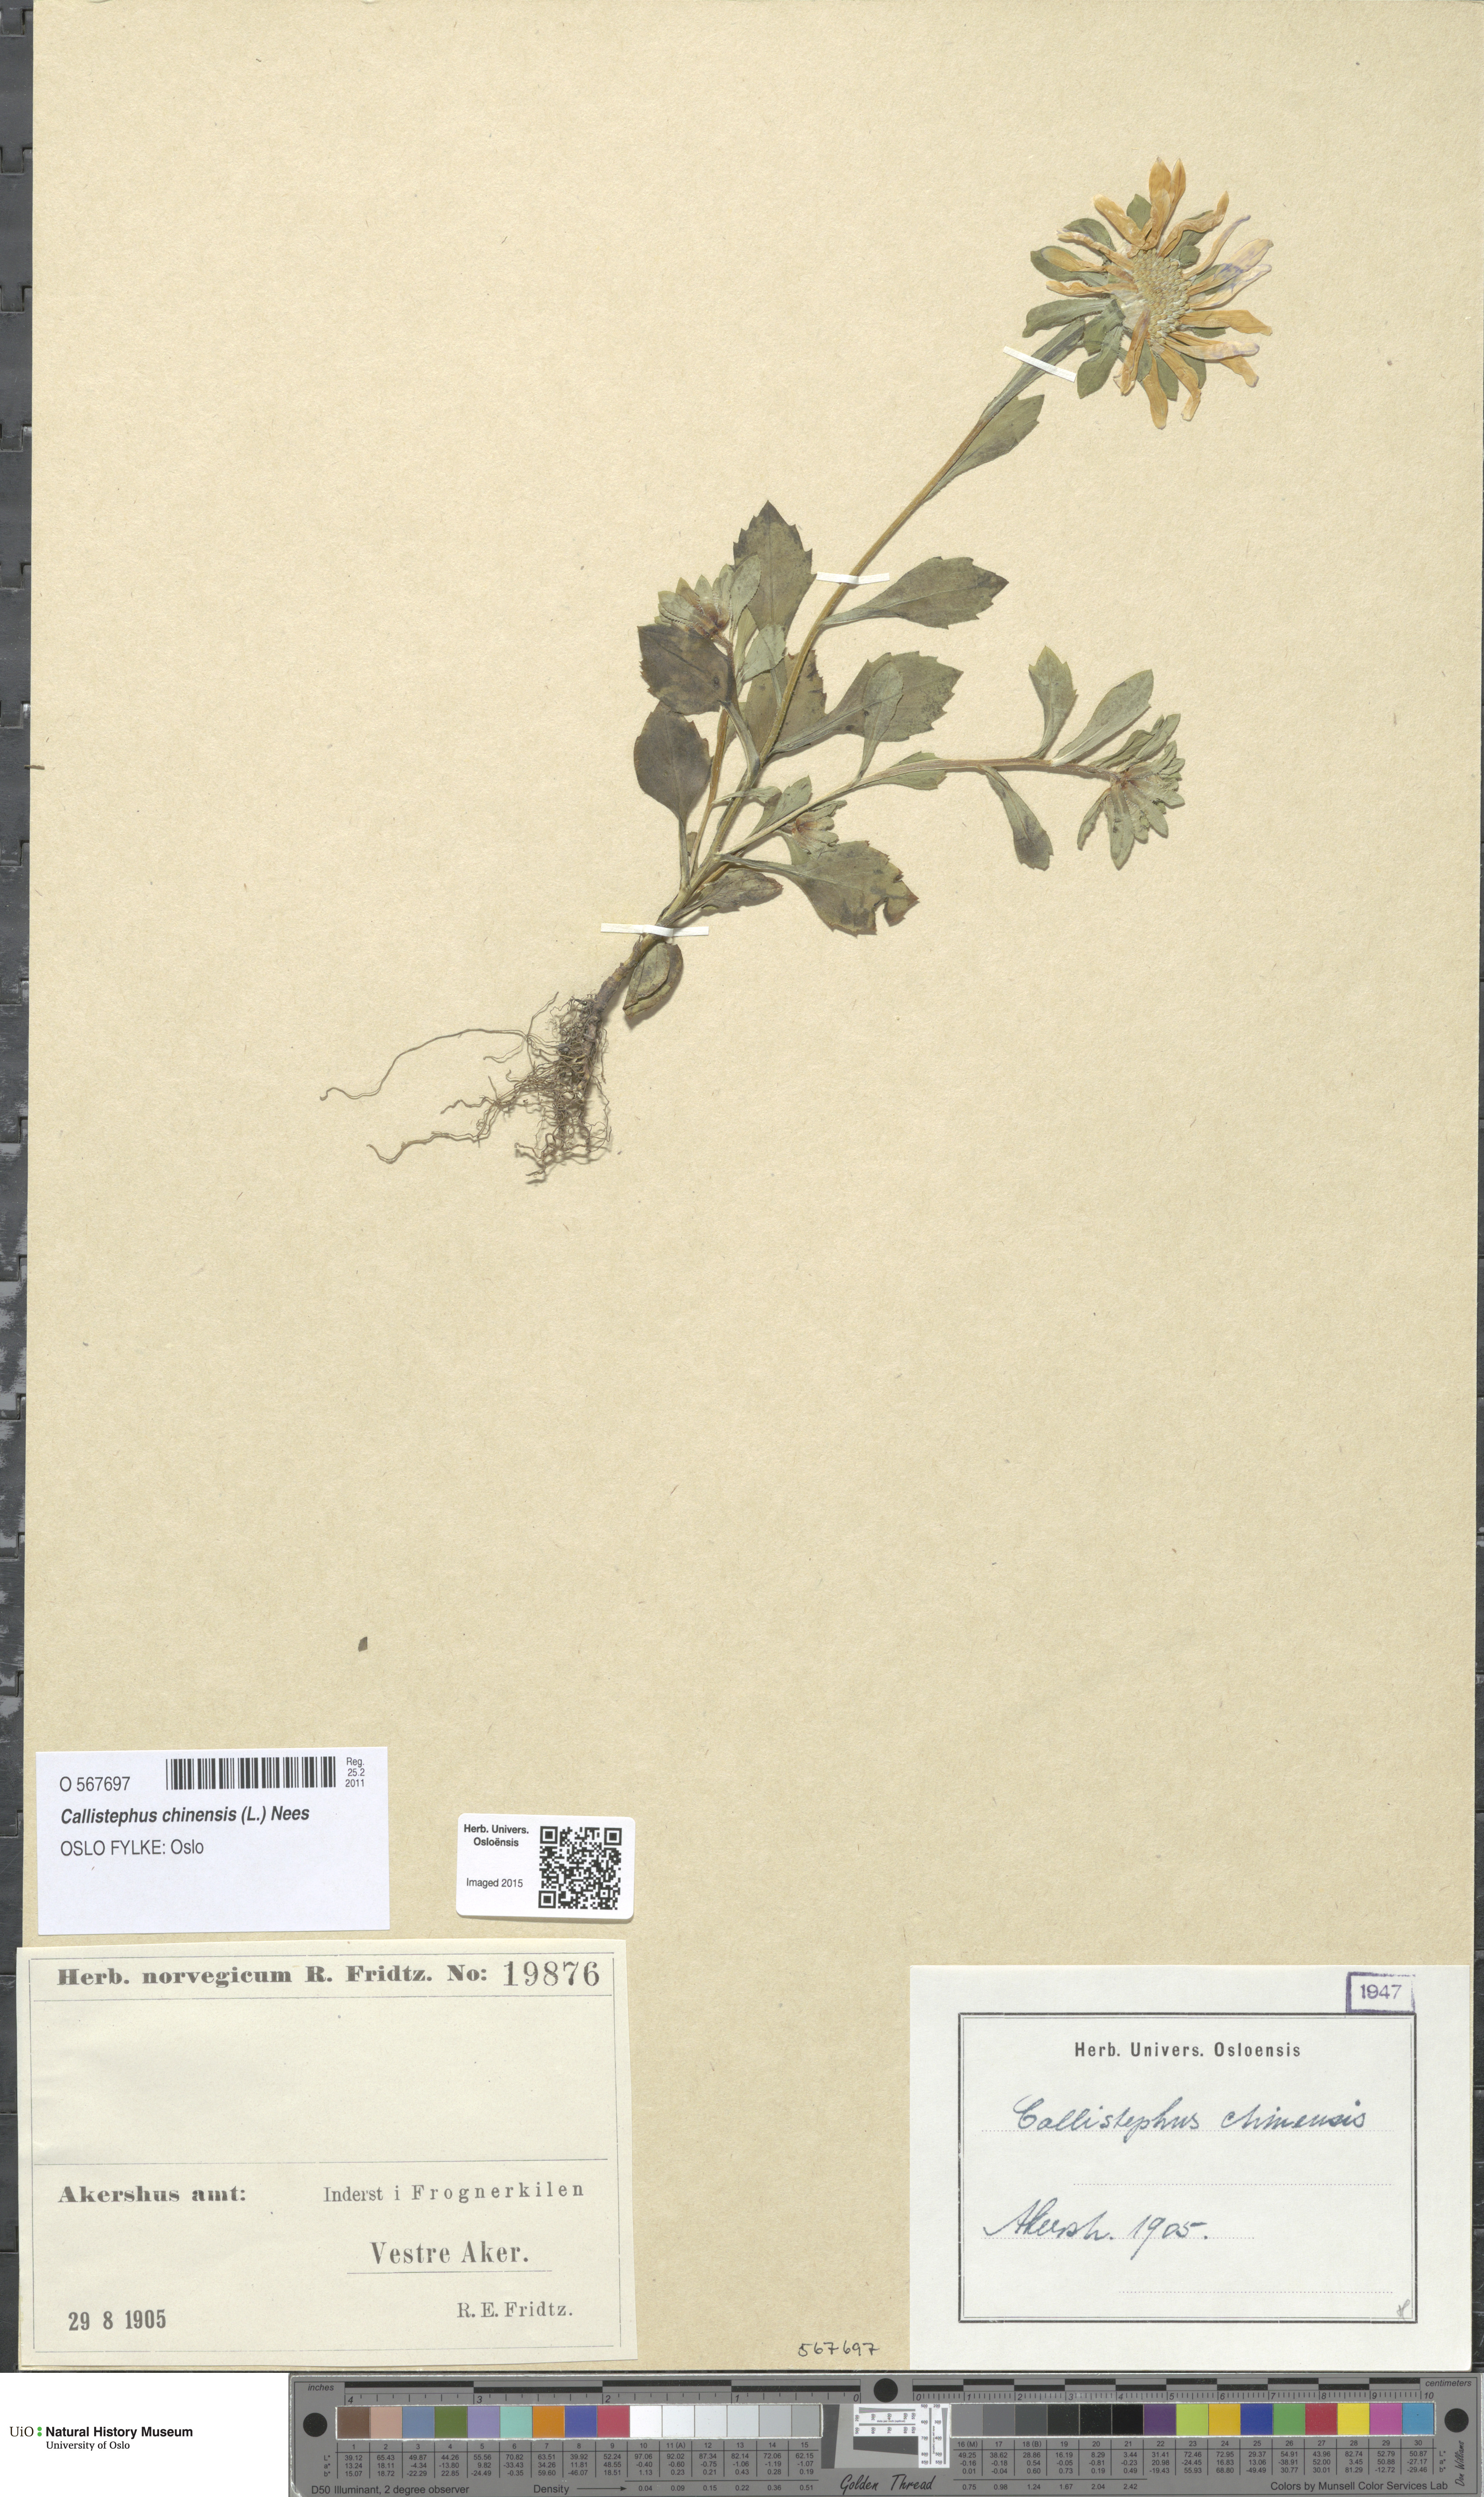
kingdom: Plantae
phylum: Tracheophyta
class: Magnoliopsida
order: Asterales
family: Asteraceae
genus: Callistephus
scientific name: Callistephus chinensis
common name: China aster
